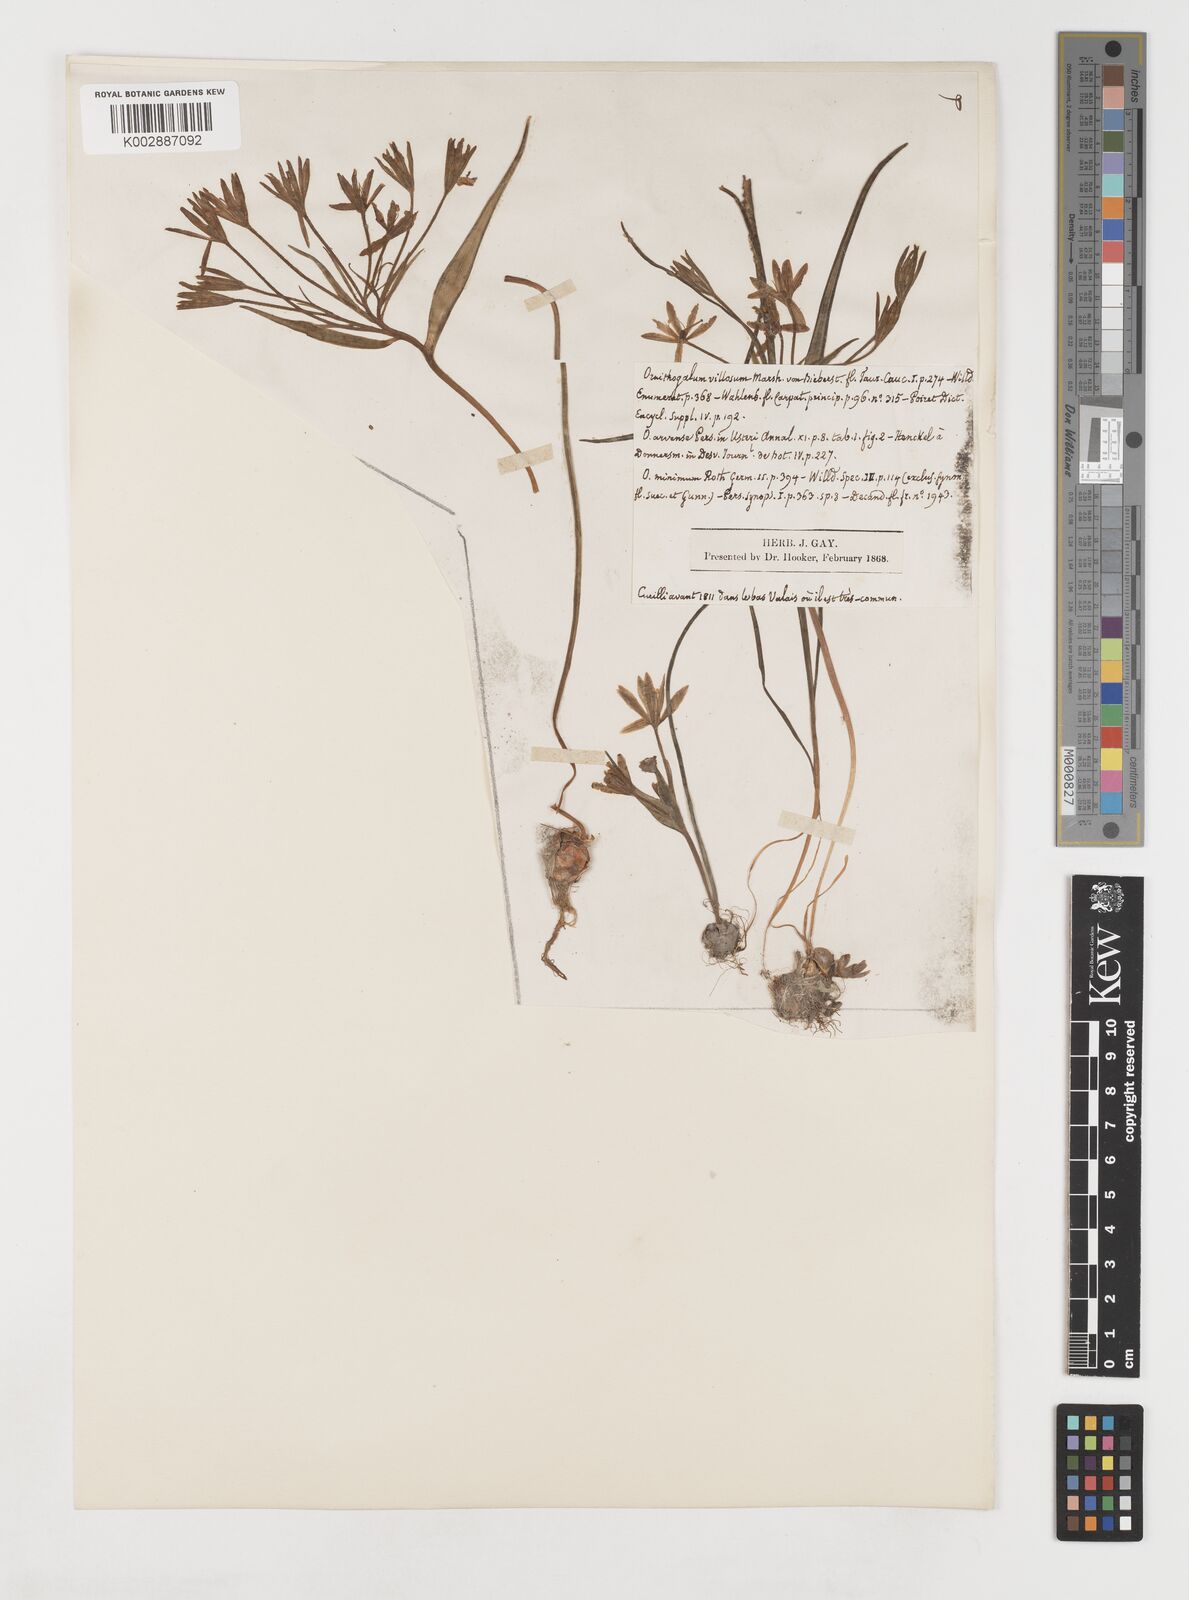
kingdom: Plantae
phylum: Tracheophyta
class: Liliopsida
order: Liliales
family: Liliaceae
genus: Gagea
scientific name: Gagea minima
